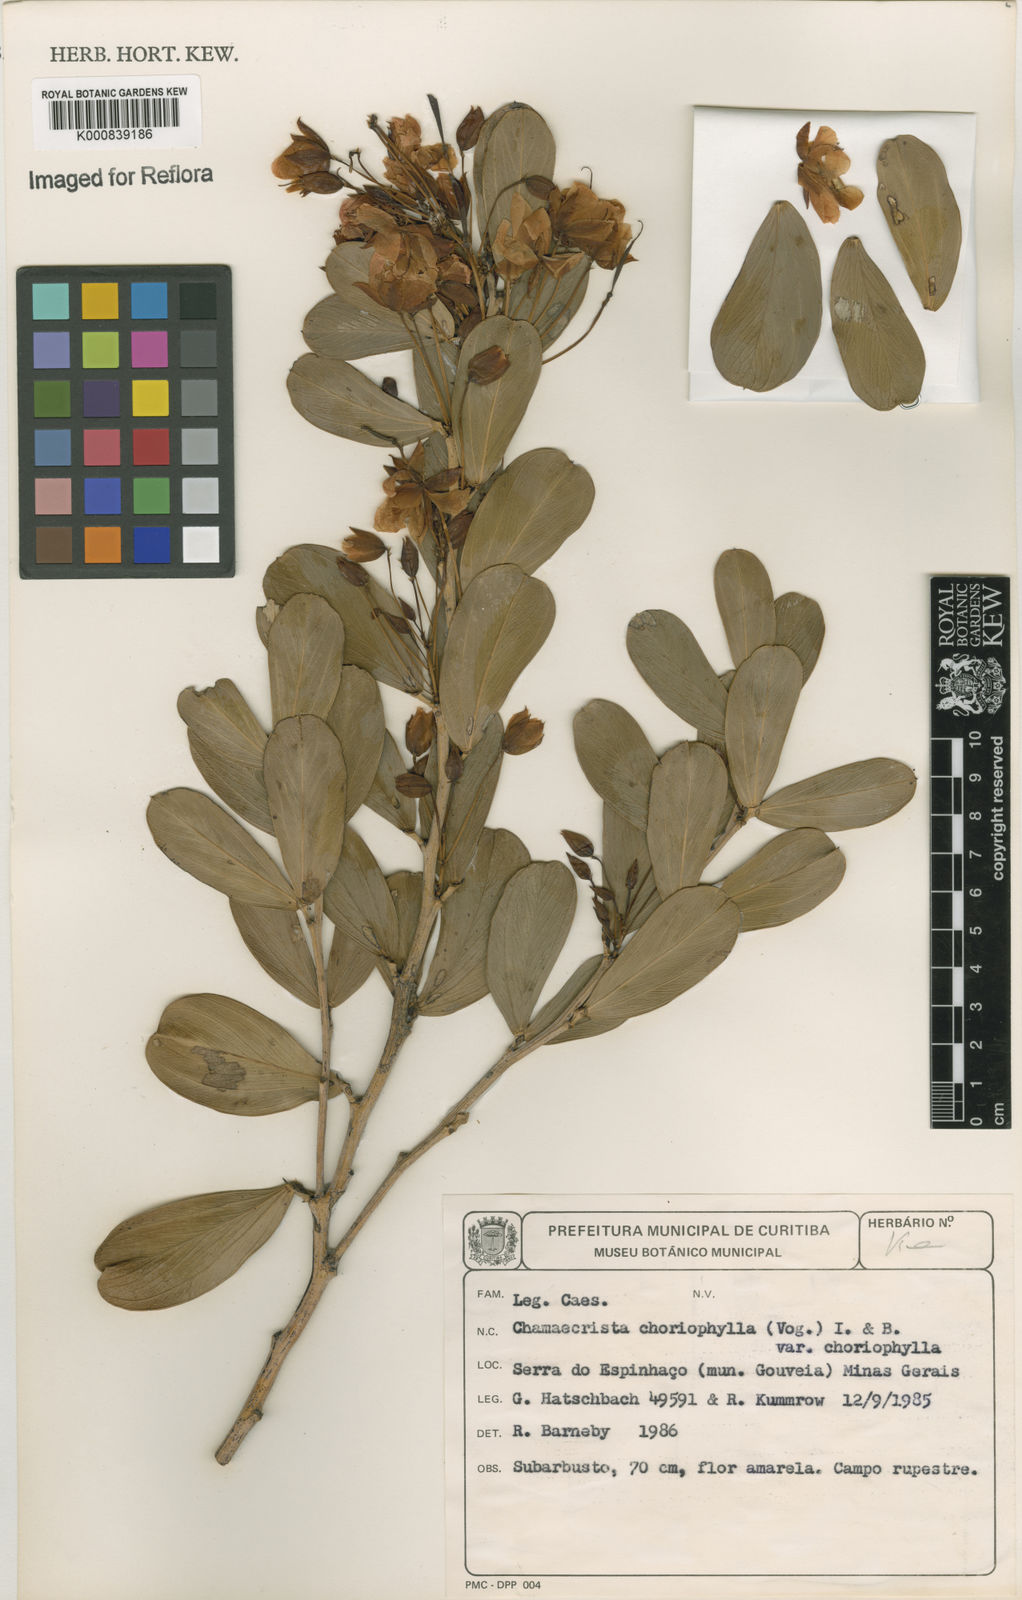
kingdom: Plantae
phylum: Tracheophyta
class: Magnoliopsida
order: Fabales
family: Fabaceae
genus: Chamaecrista
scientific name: Chamaecrista choriophylla
